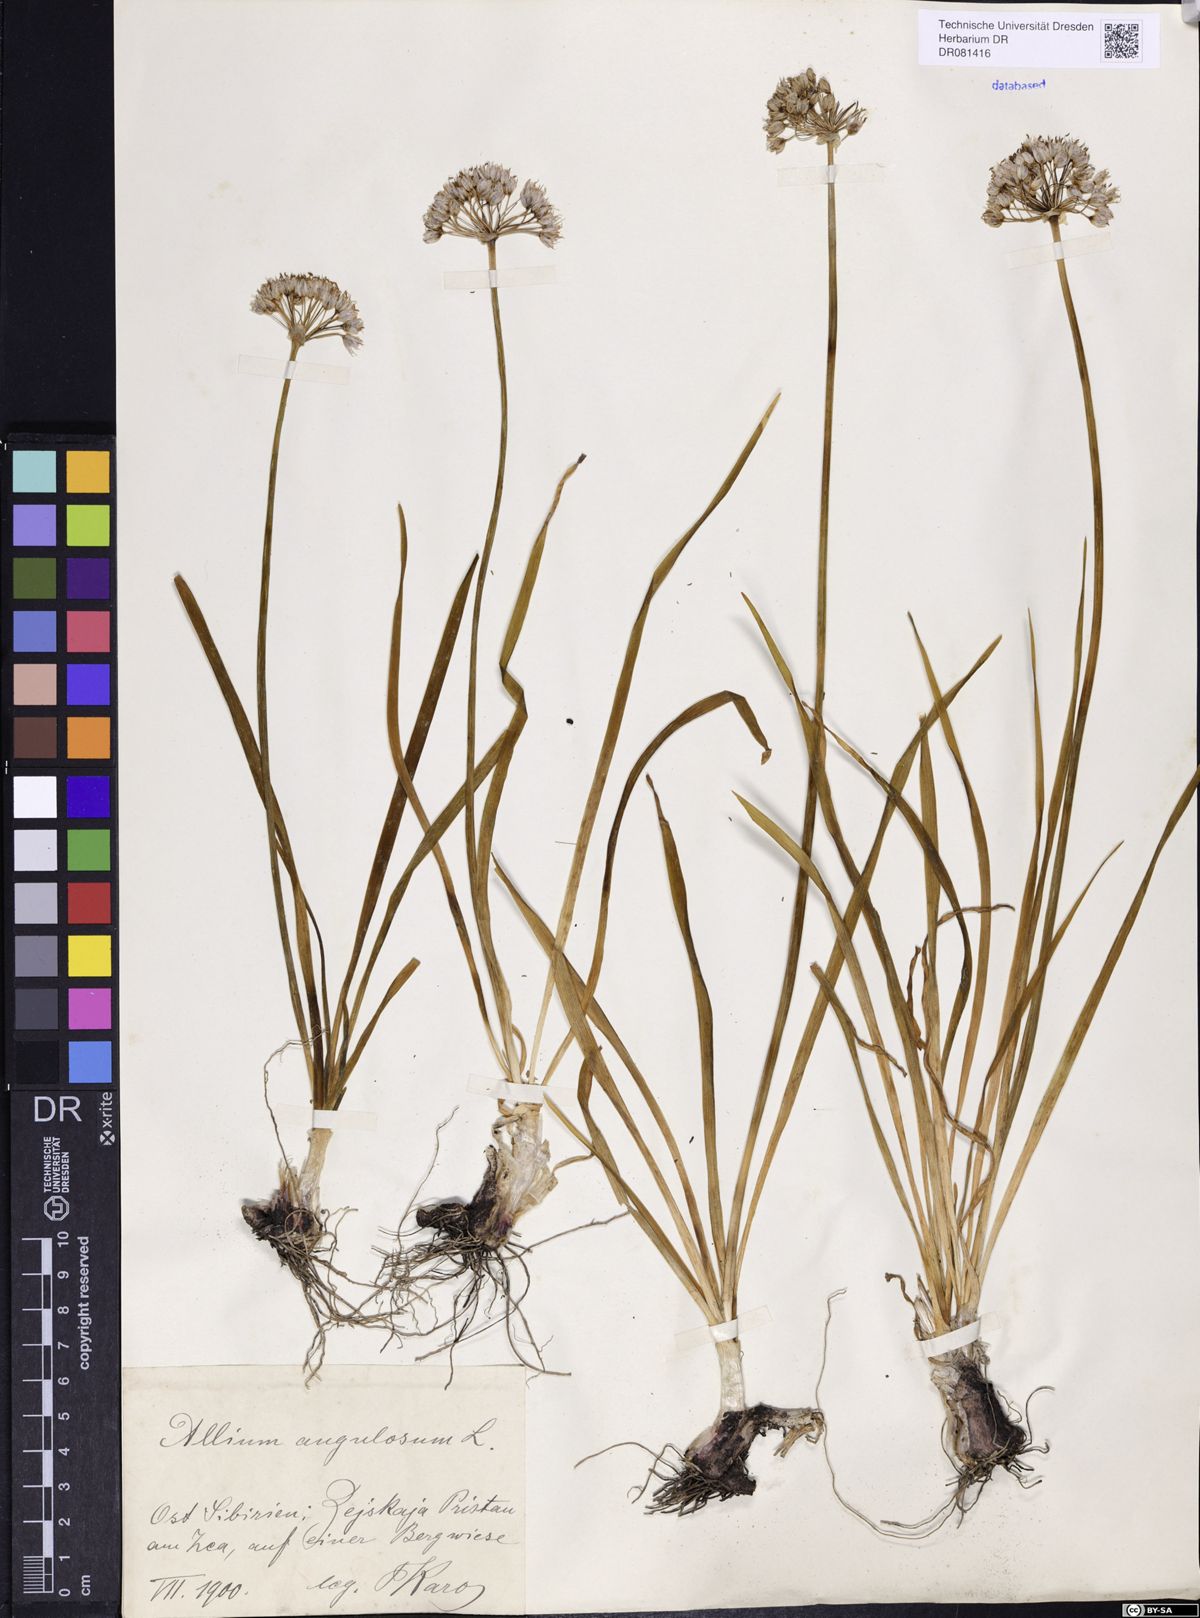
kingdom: Plantae
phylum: Tracheophyta
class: Liliopsida
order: Asparagales
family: Amaryllidaceae
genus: Allium
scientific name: Allium angulosum
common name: Mouse garlic
